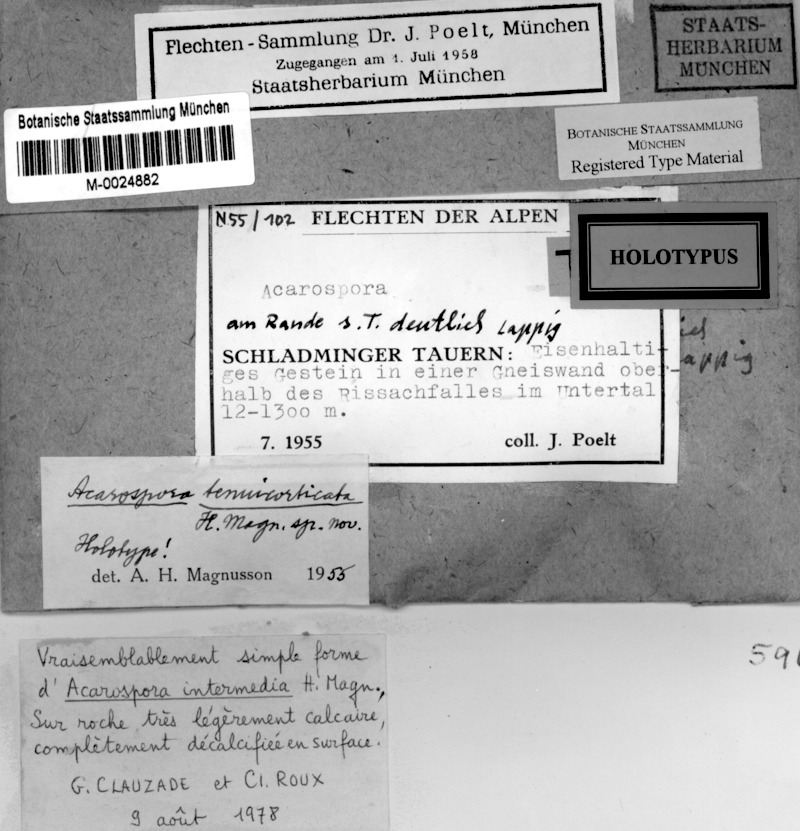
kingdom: Fungi
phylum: Ascomycota
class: Lecanoromycetes
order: Acarosporales
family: Acarosporaceae
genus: Acarospora
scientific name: Acarospora tenuicorticata
